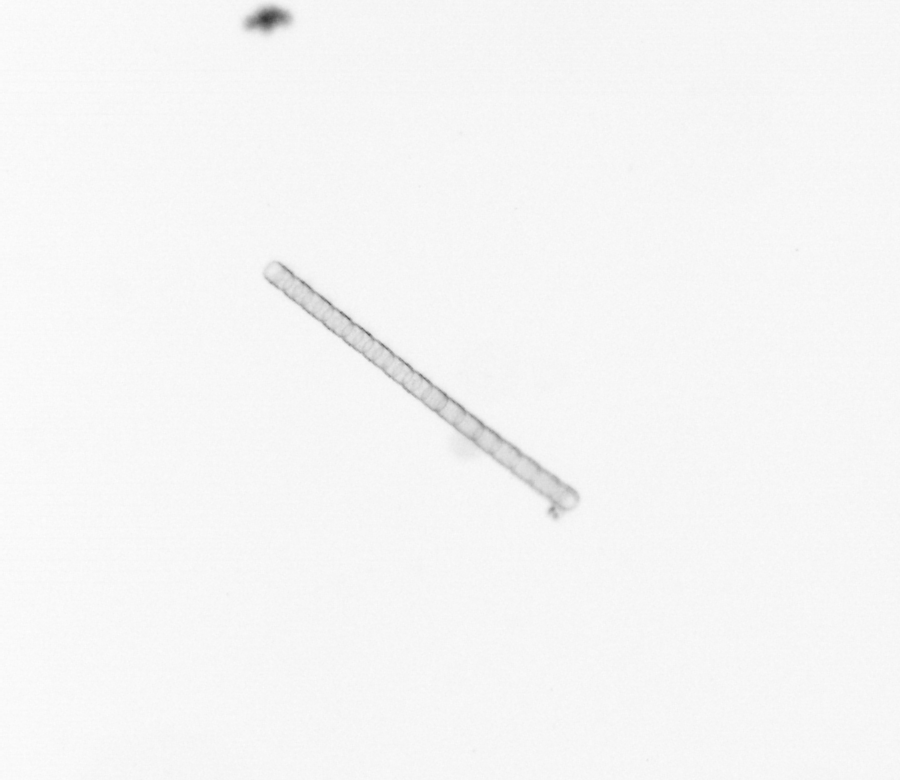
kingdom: Chromista
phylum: Ochrophyta
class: Bacillariophyceae
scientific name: Bacillariophyceae
